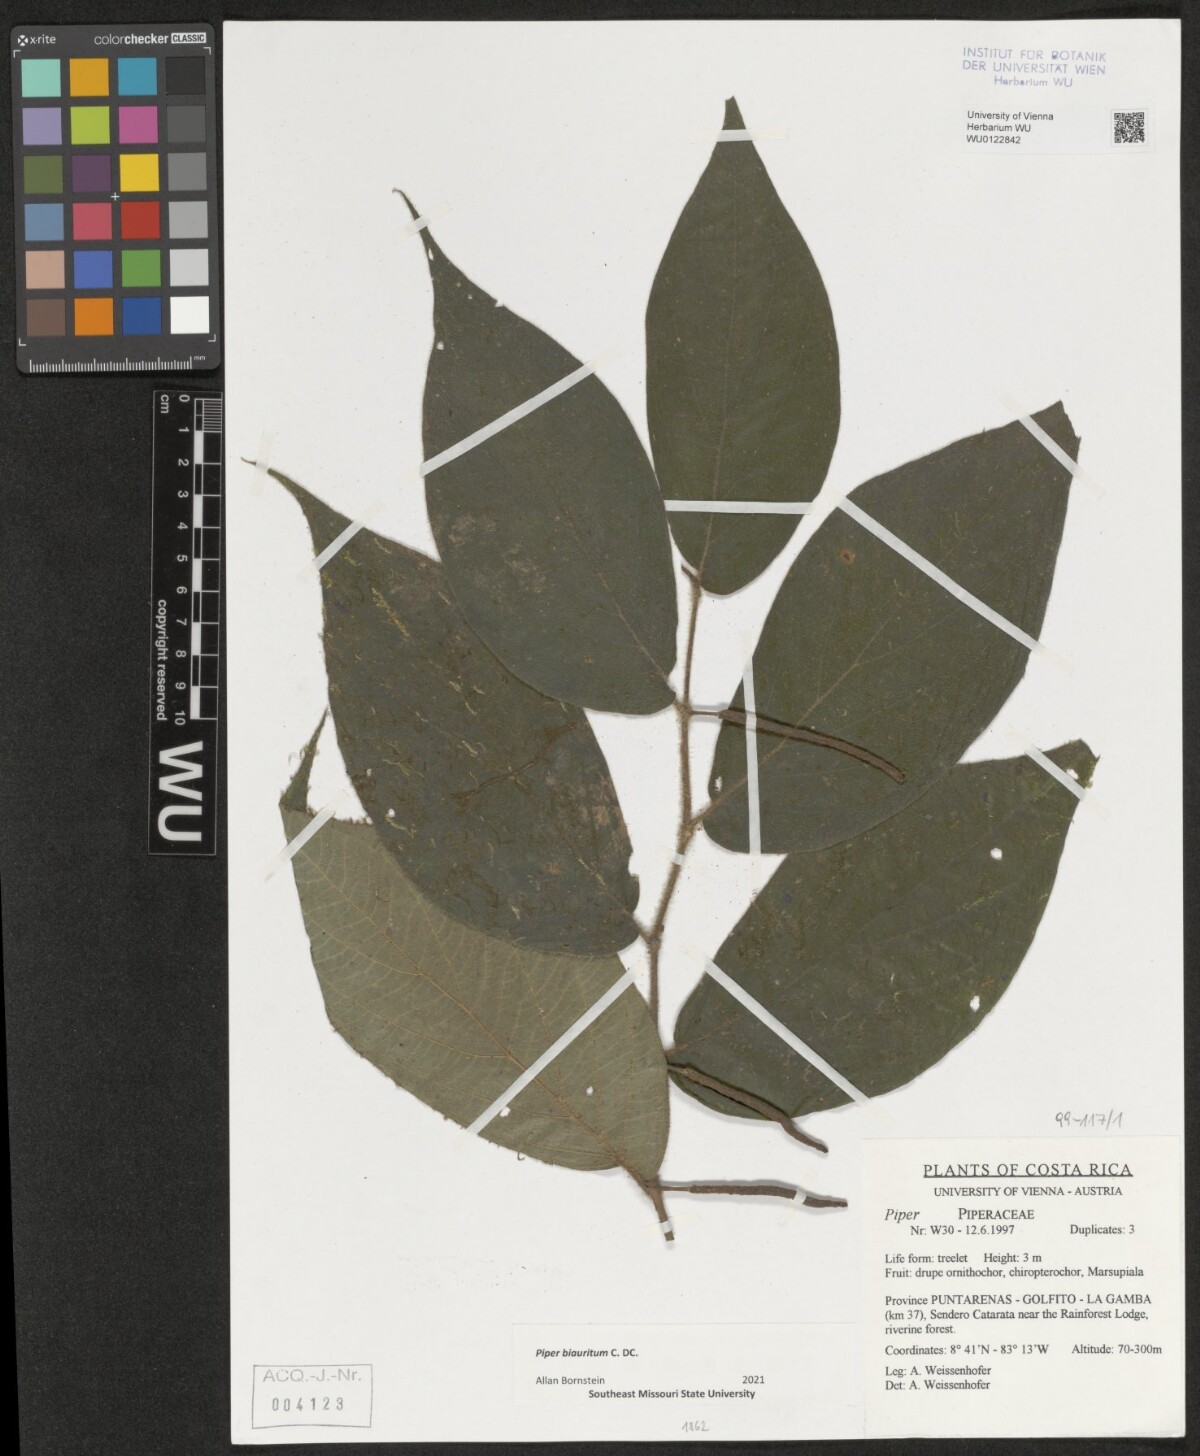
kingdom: Plantae
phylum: Tracheophyta
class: Magnoliopsida
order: Piperales
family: Piperaceae
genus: Piper
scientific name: Piper biauritum
